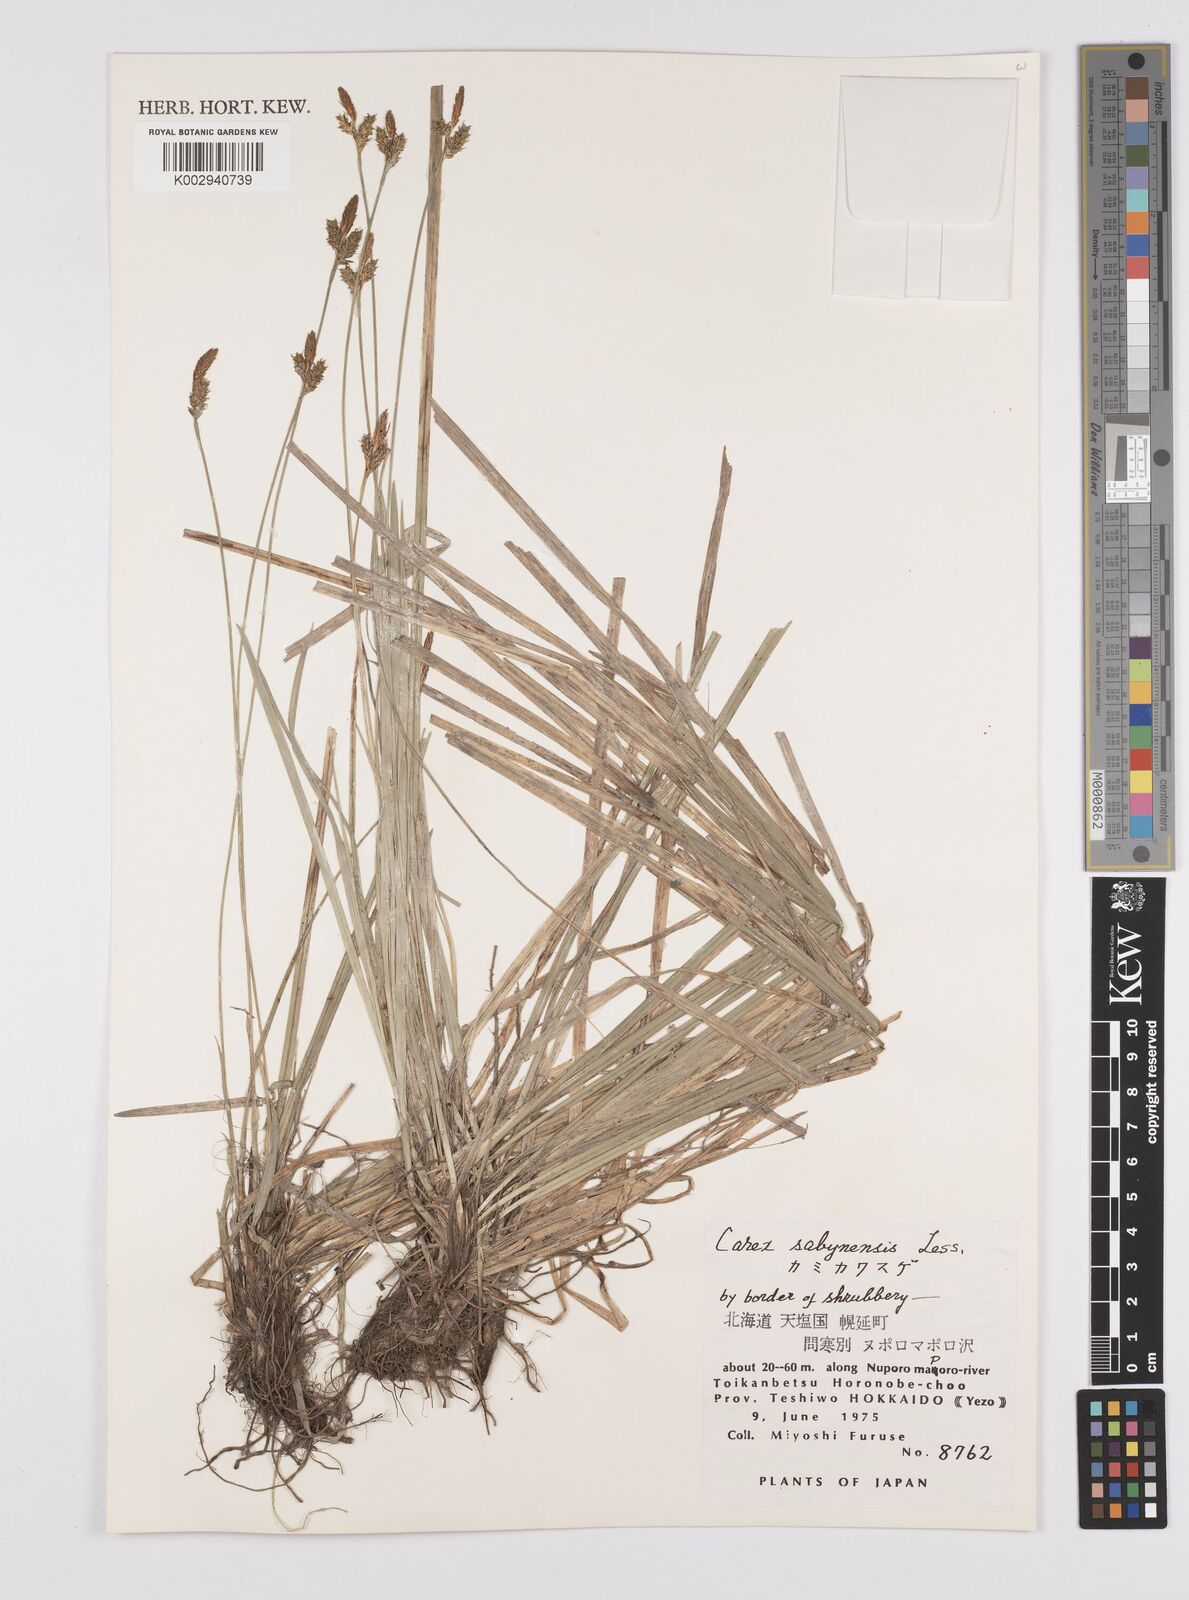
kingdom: Plantae
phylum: Tracheophyta
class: Liliopsida
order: Poales
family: Cyperaceae
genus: Carex
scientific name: Carex umbrosa
